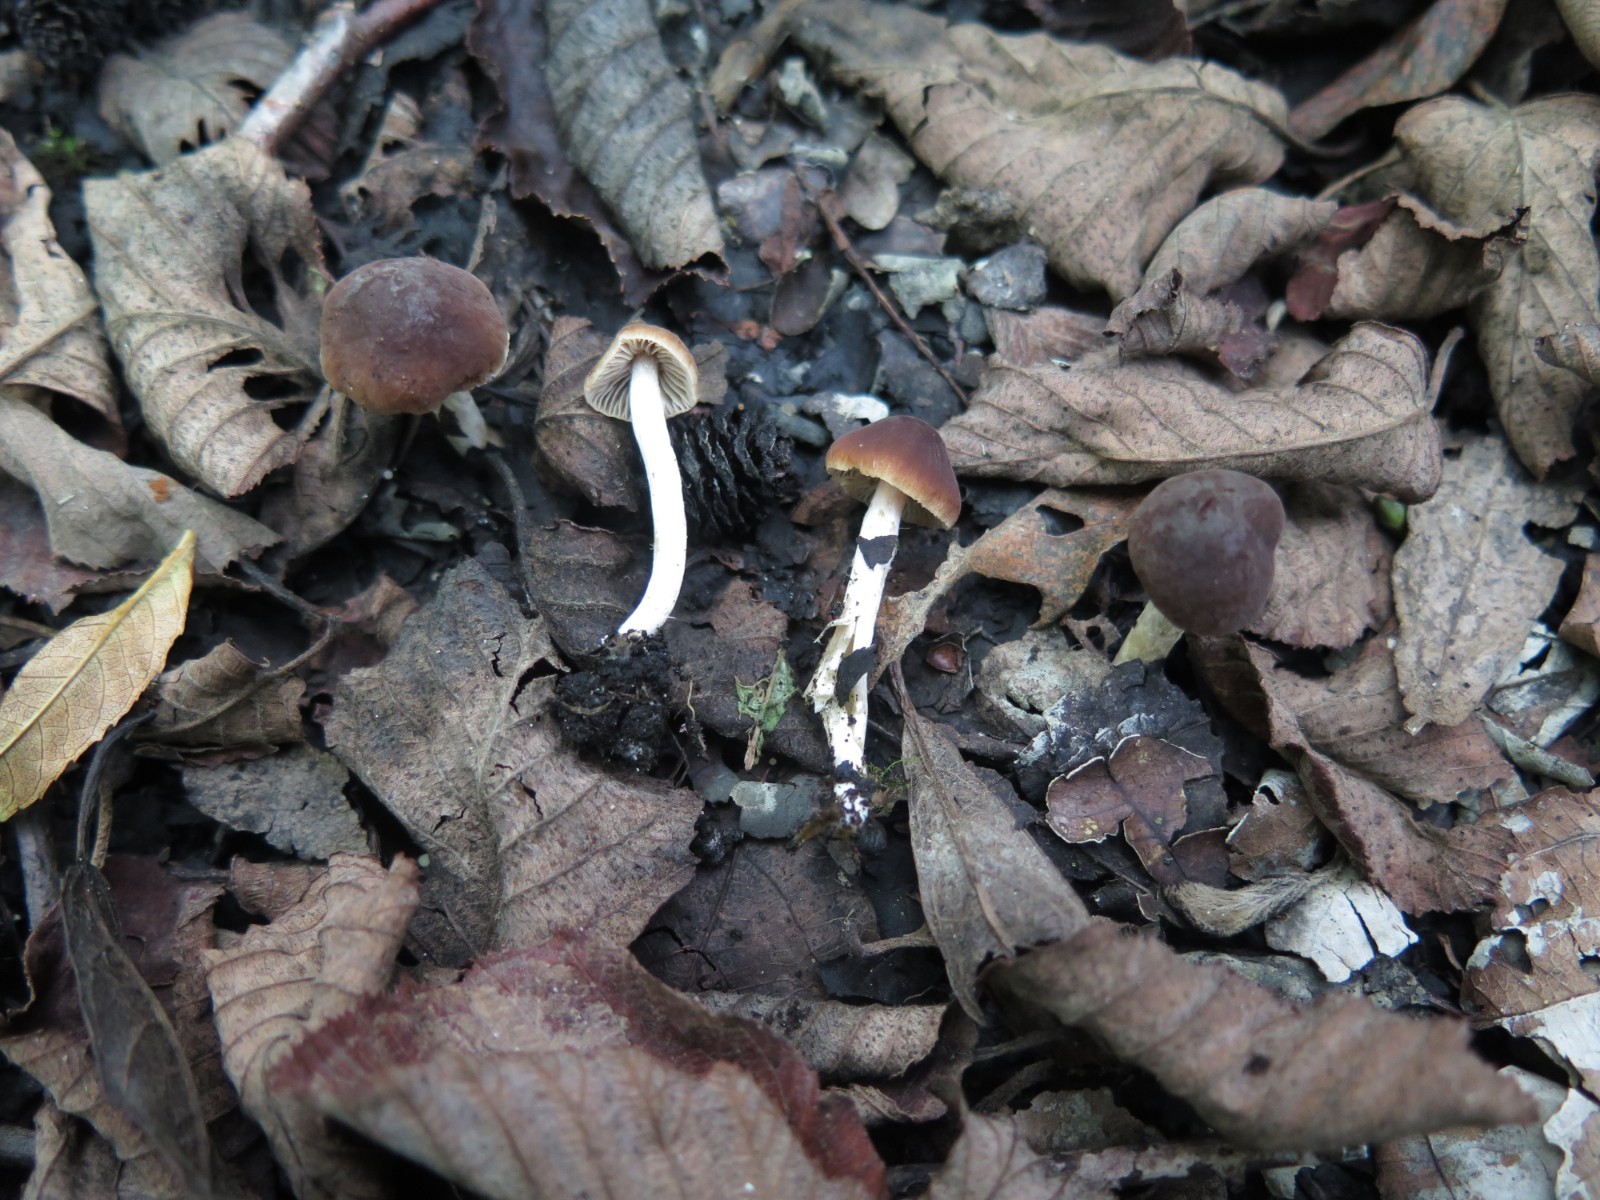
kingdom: Fungi
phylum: Basidiomycota
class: Agaricomycetes
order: Agaricales
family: Hymenogastraceae
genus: Naucoria
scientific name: Naucoria bohemica
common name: birke-knaphat
